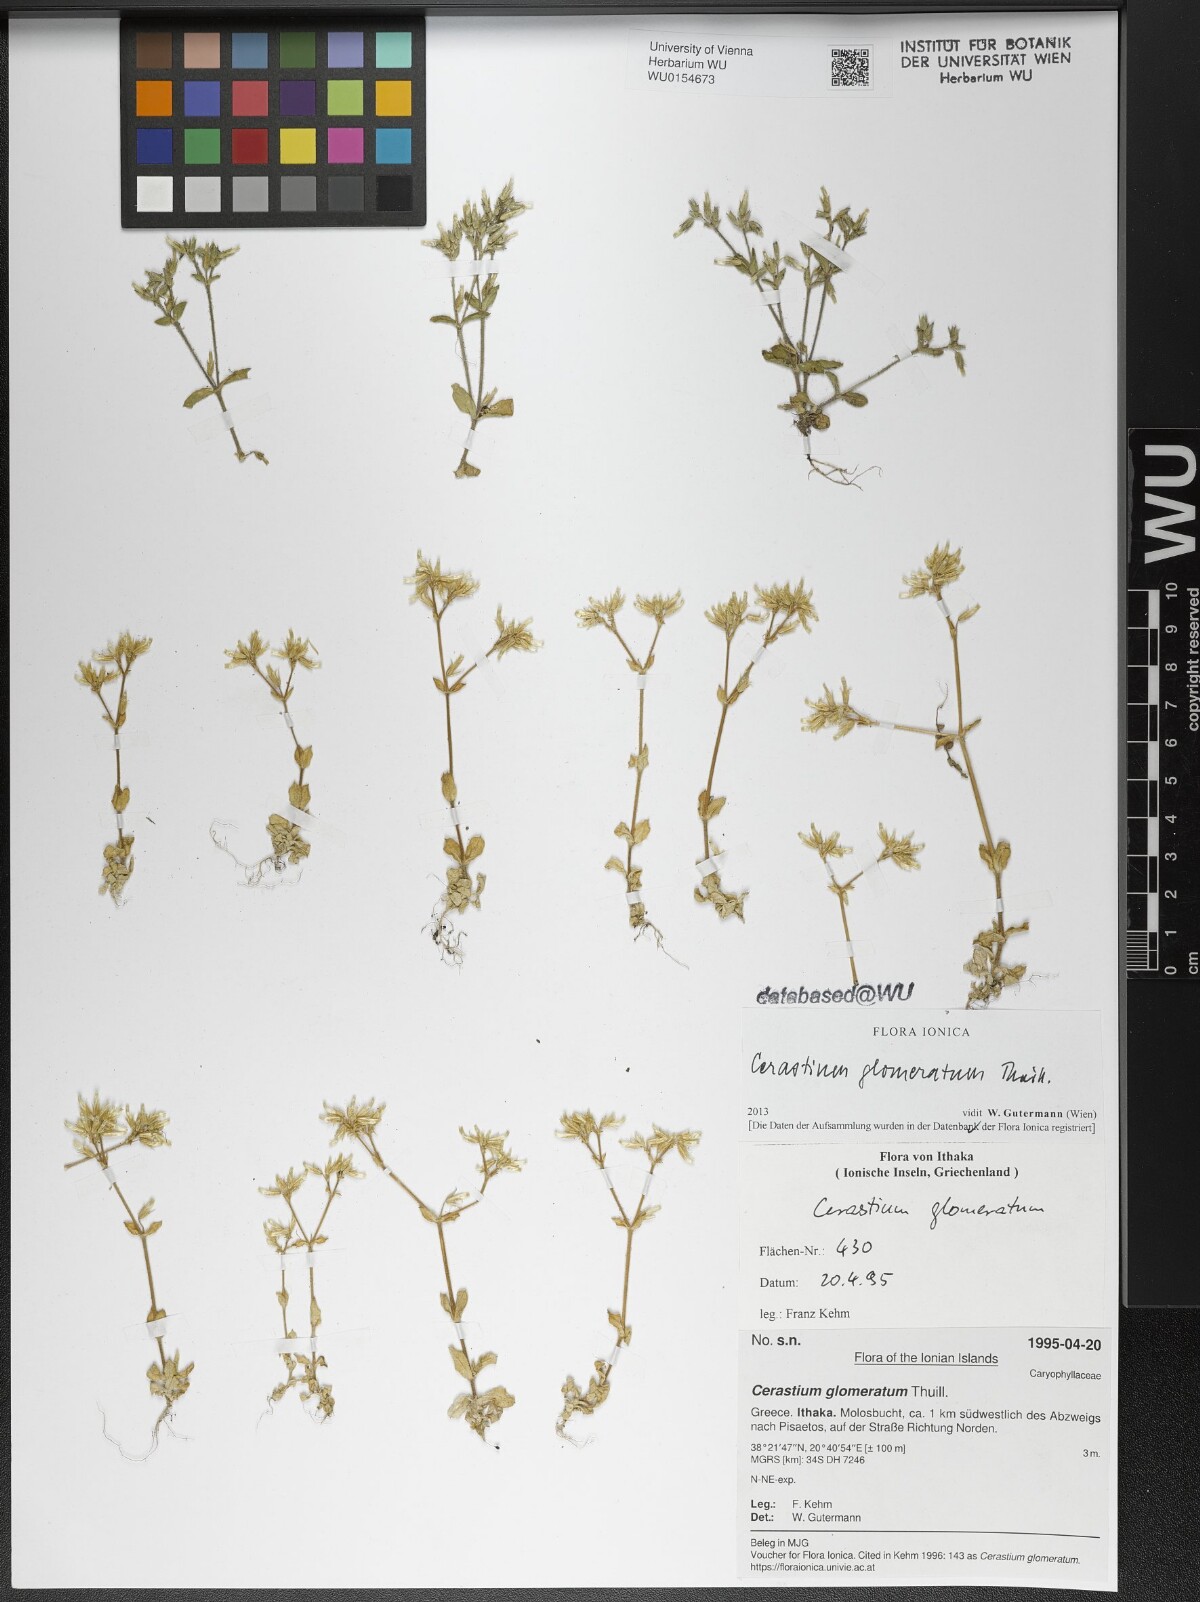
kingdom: Plantae
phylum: Tracheophyta
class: Magnoliopsida
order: Caryophyllales
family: Caryophyllaceae
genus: Cerastium
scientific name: Cerastium glomeratum
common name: Sticky chickweed
